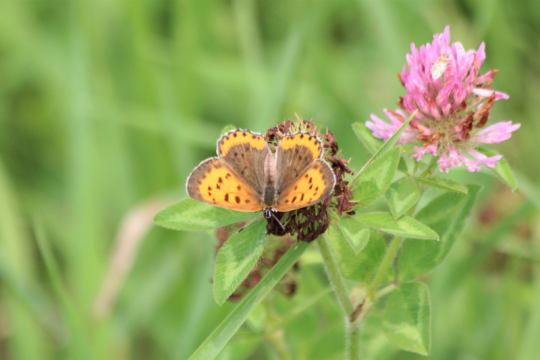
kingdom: Animalia
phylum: Arthropoda
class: Insecta
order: Lepidoptera
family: Sesiidae
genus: Sesia
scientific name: Sesia Lycaena hyllus
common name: Bronze Copper
